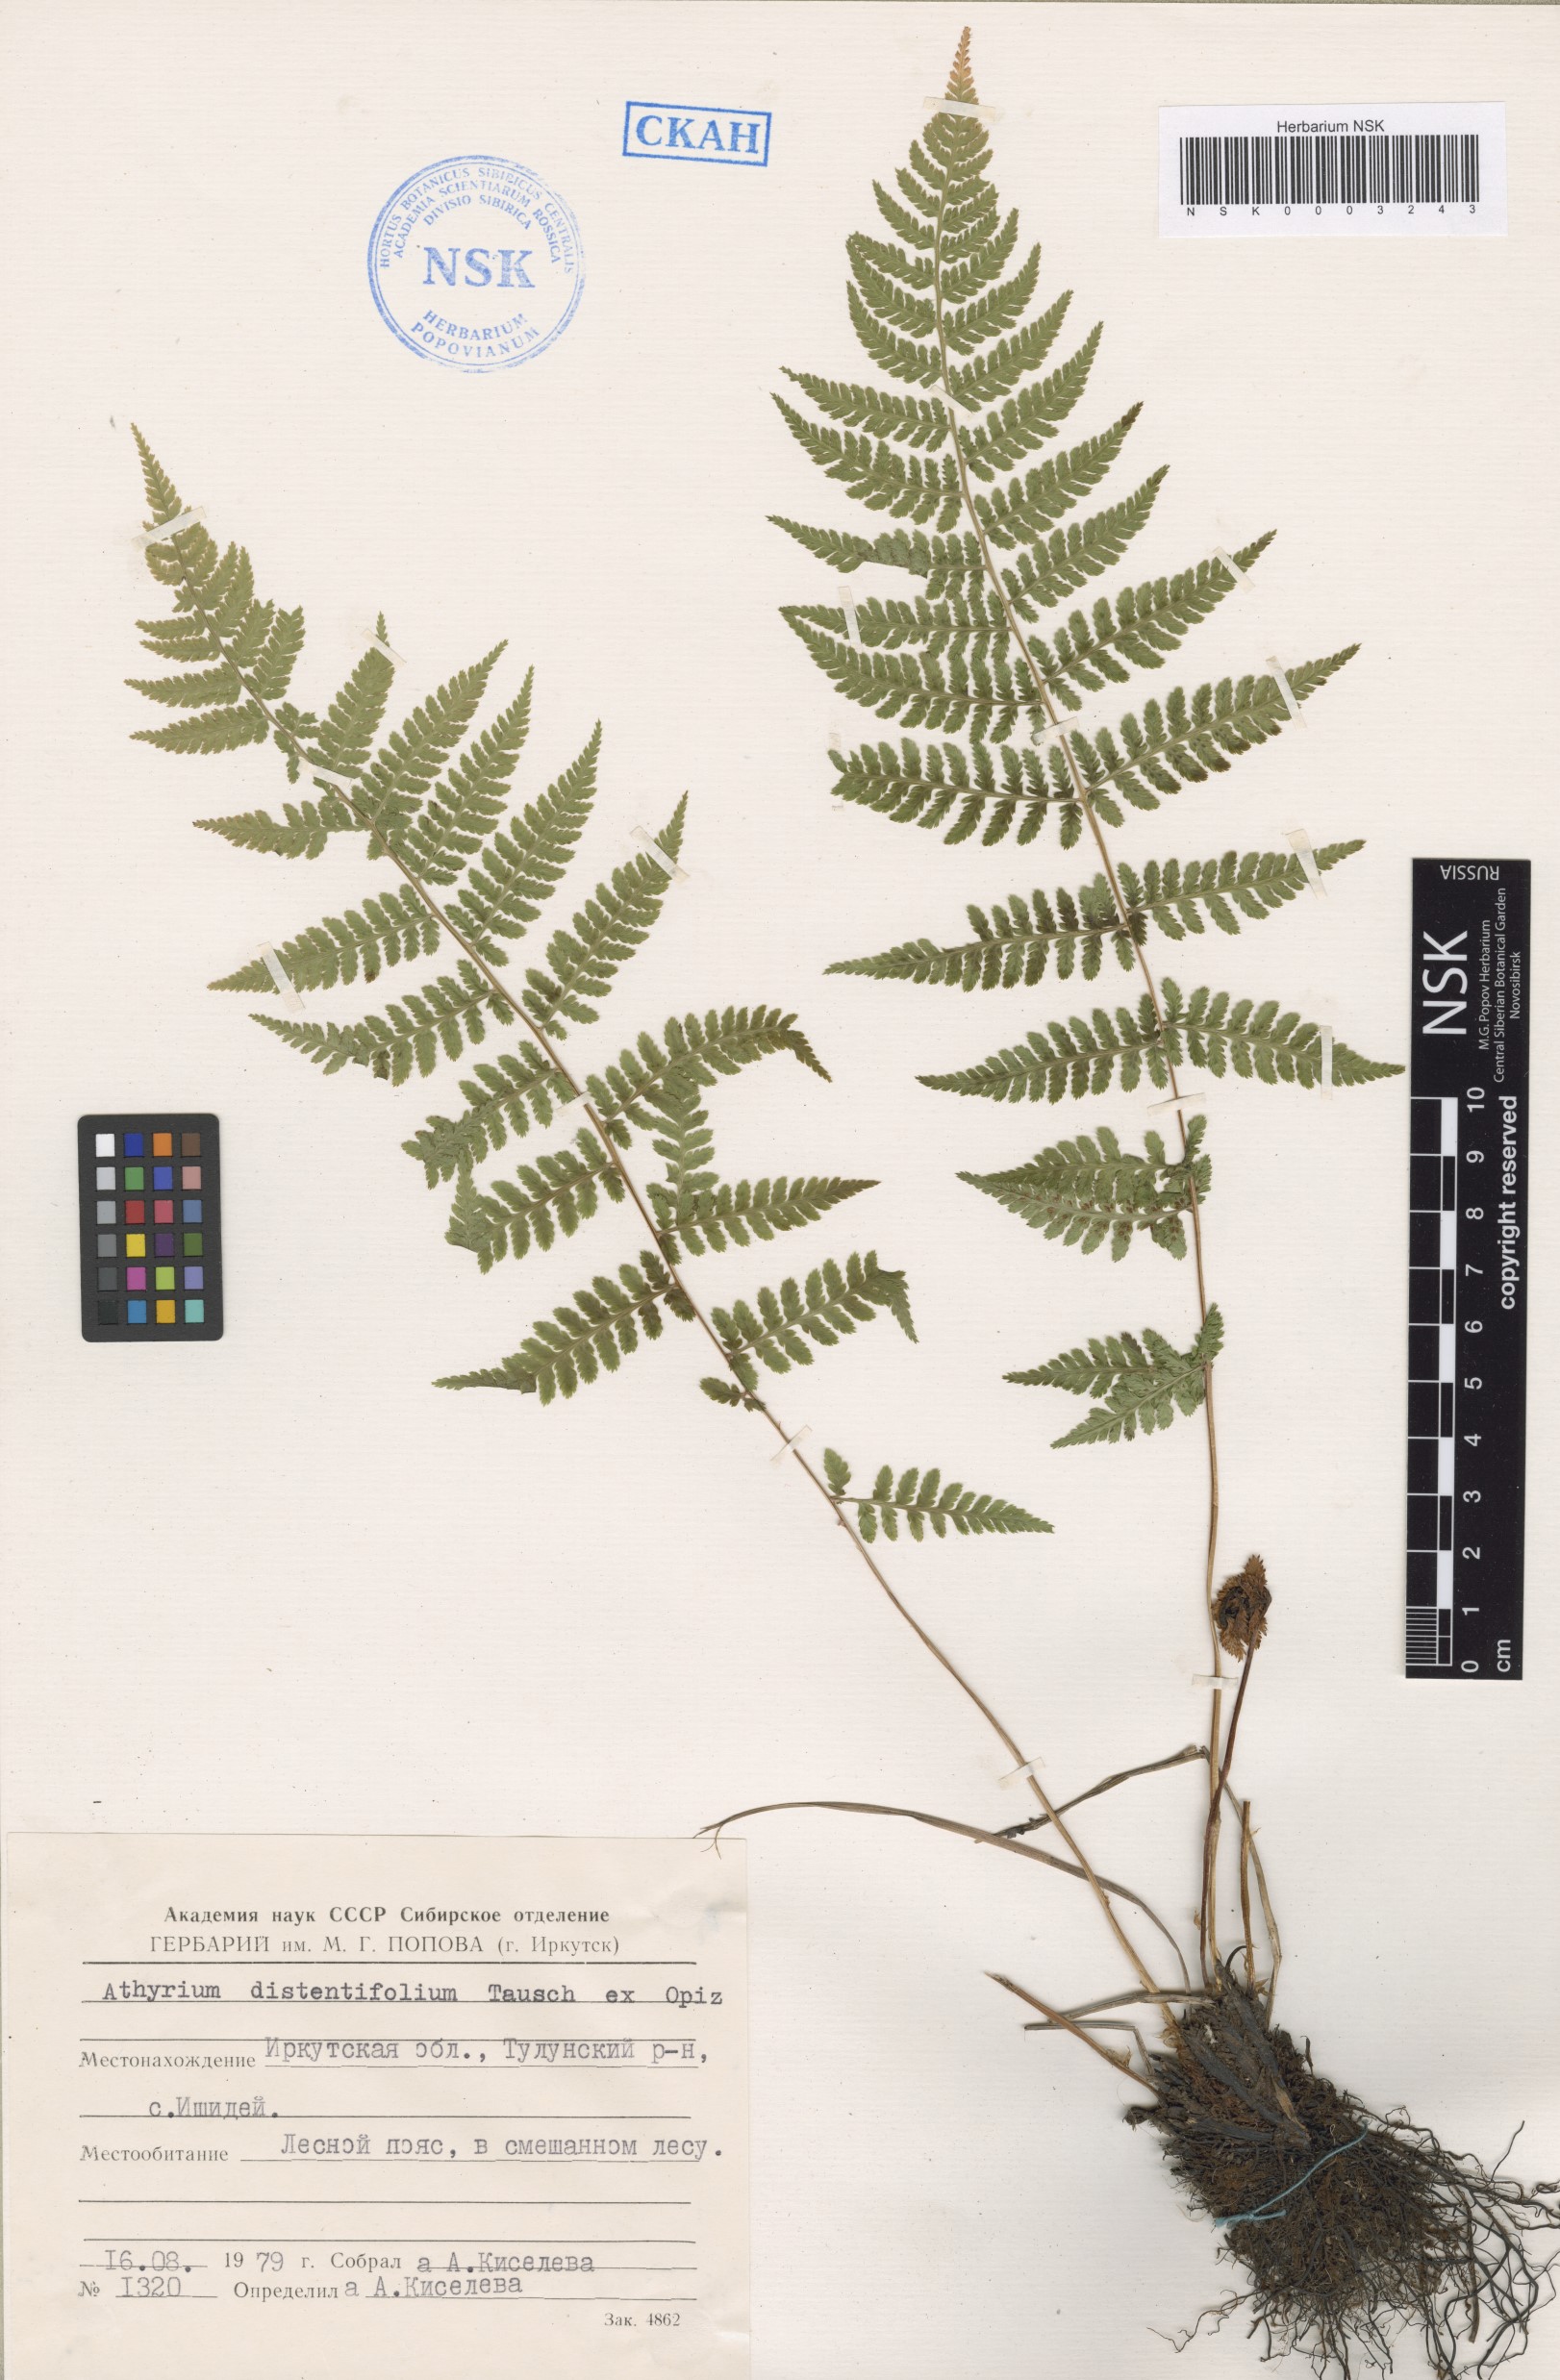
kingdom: Plantae
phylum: Tracheophyta
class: Polypodiopsida
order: Polypodiales
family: Athyriaceae
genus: Pseudathyrium
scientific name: Pseudathyrium alpestre
